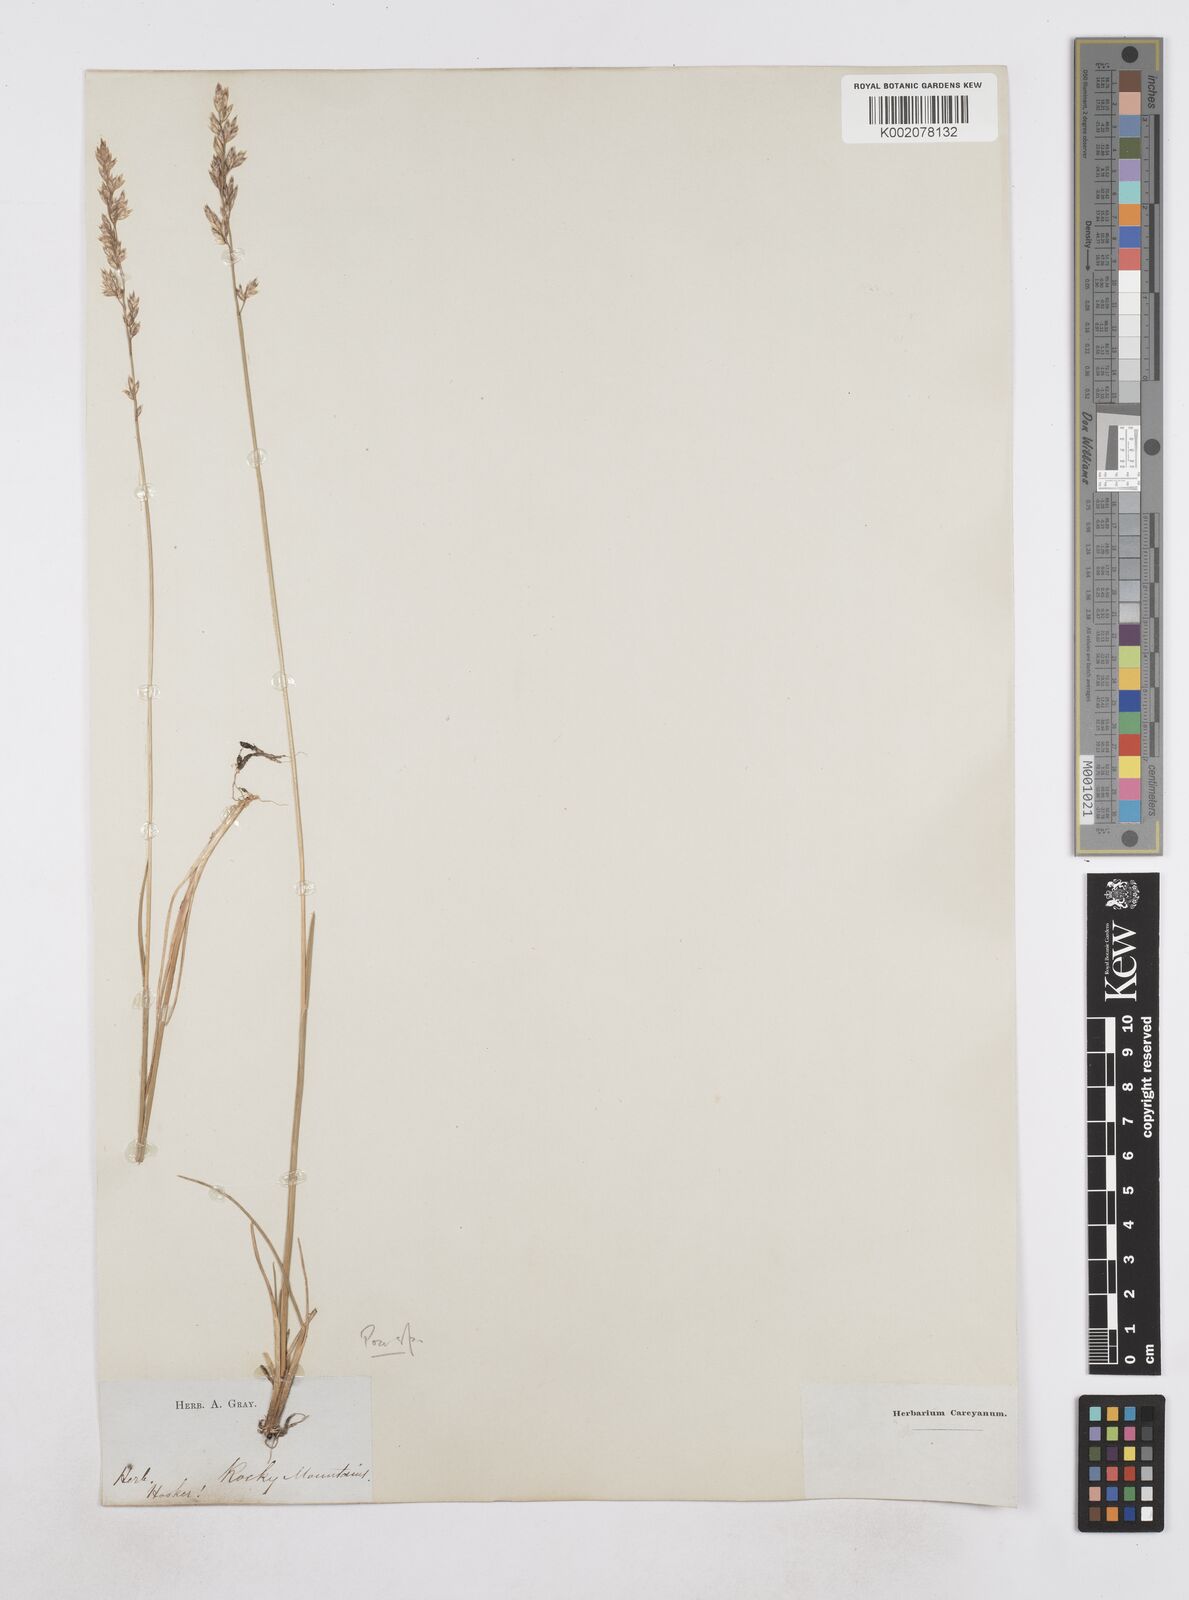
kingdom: Plantae
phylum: Tracheophyta
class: Liliopsida
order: Poales
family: Poaceae
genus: Poa
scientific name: Poa
